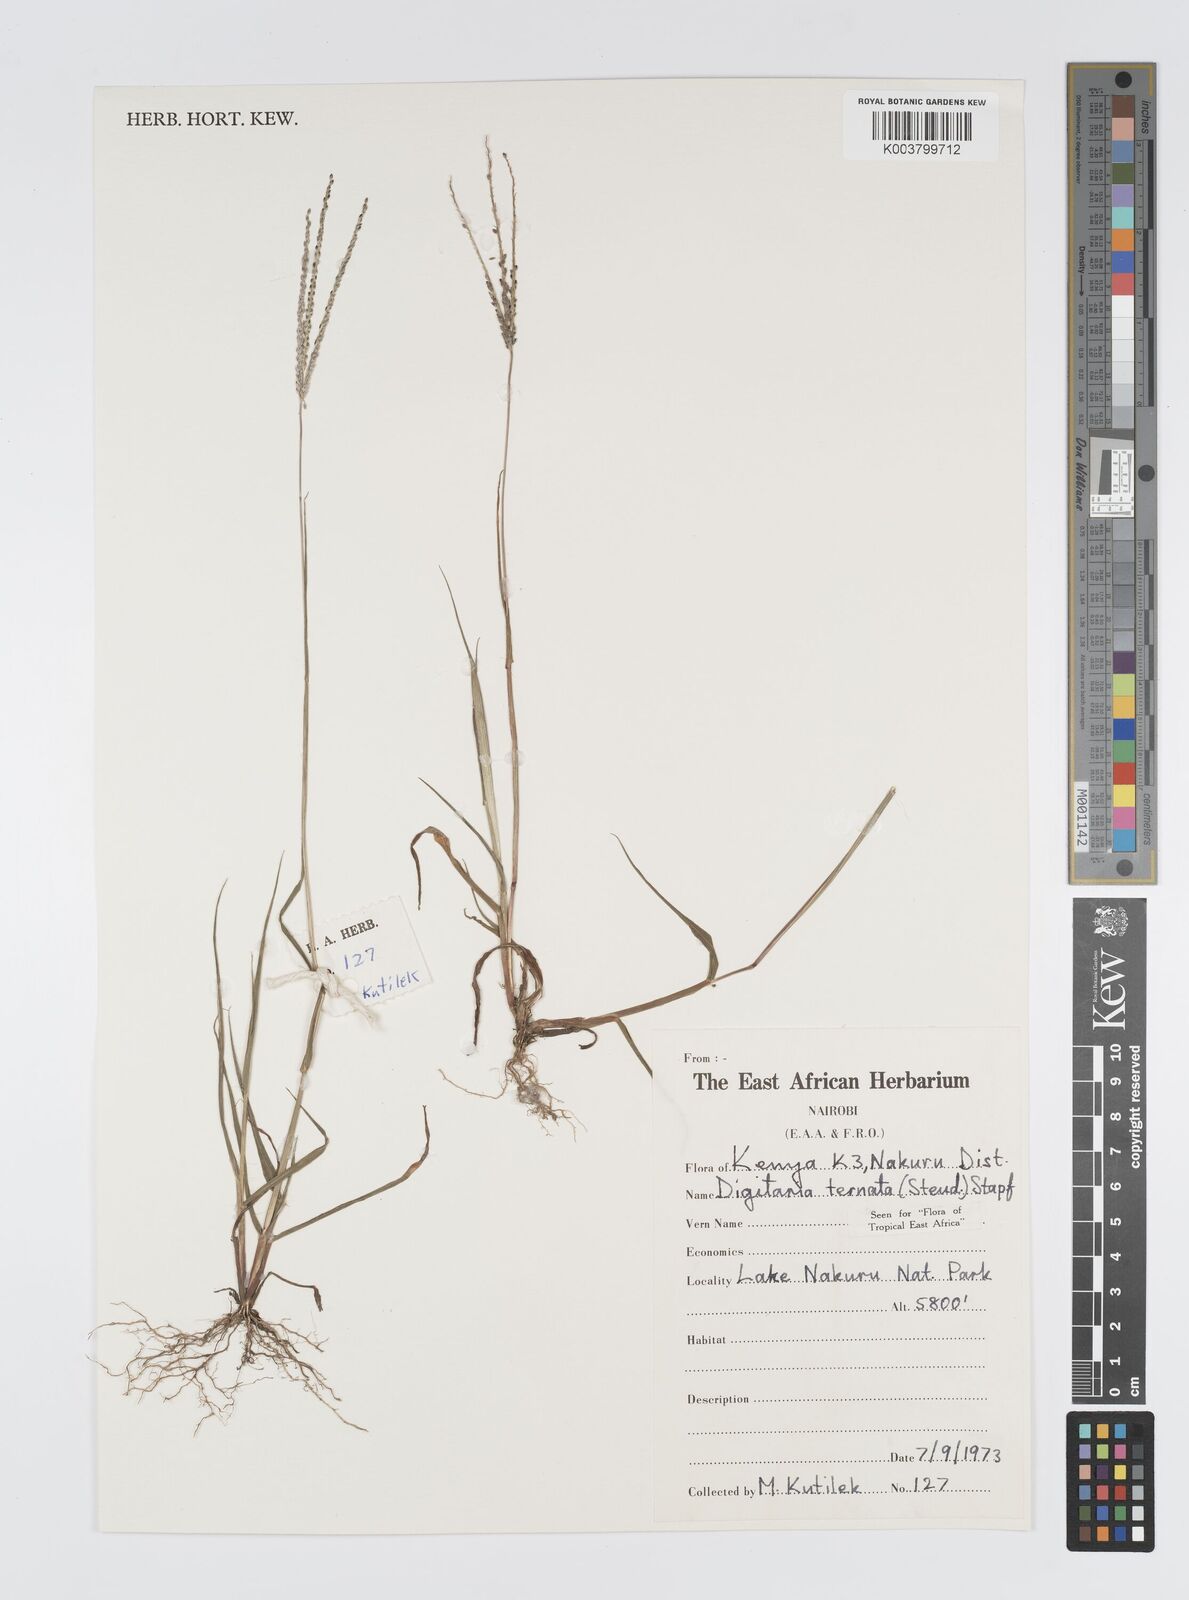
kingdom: Plantae
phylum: Tracheophyta
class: Liliopsida
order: Poales
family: Poaceae
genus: Digitaria
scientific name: Digitaria ternata
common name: Blackseed crabgrass
